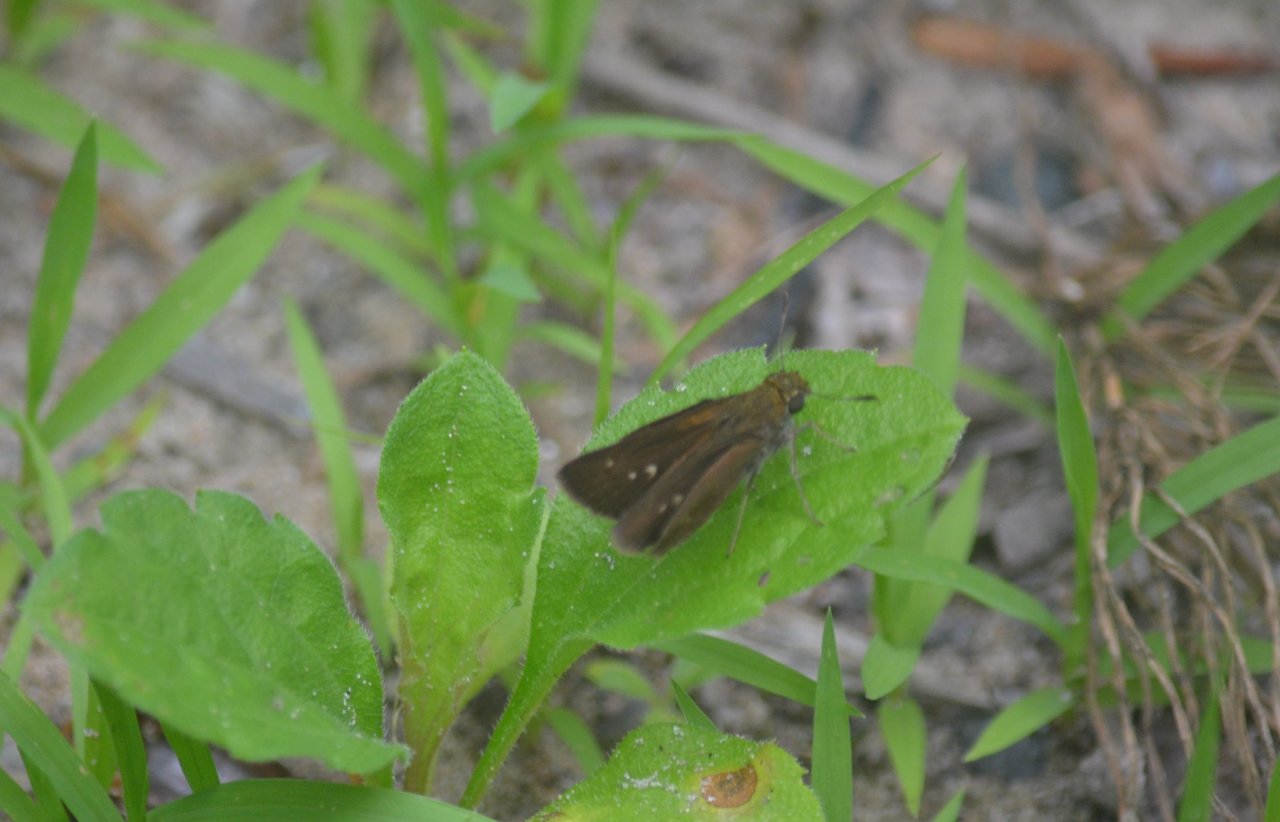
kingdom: Animalia
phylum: Arthropoda
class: Insecta
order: Lepidoptera
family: Hesperiidae
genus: Euphyes
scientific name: Euphyes vestris
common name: Dun Skipper
